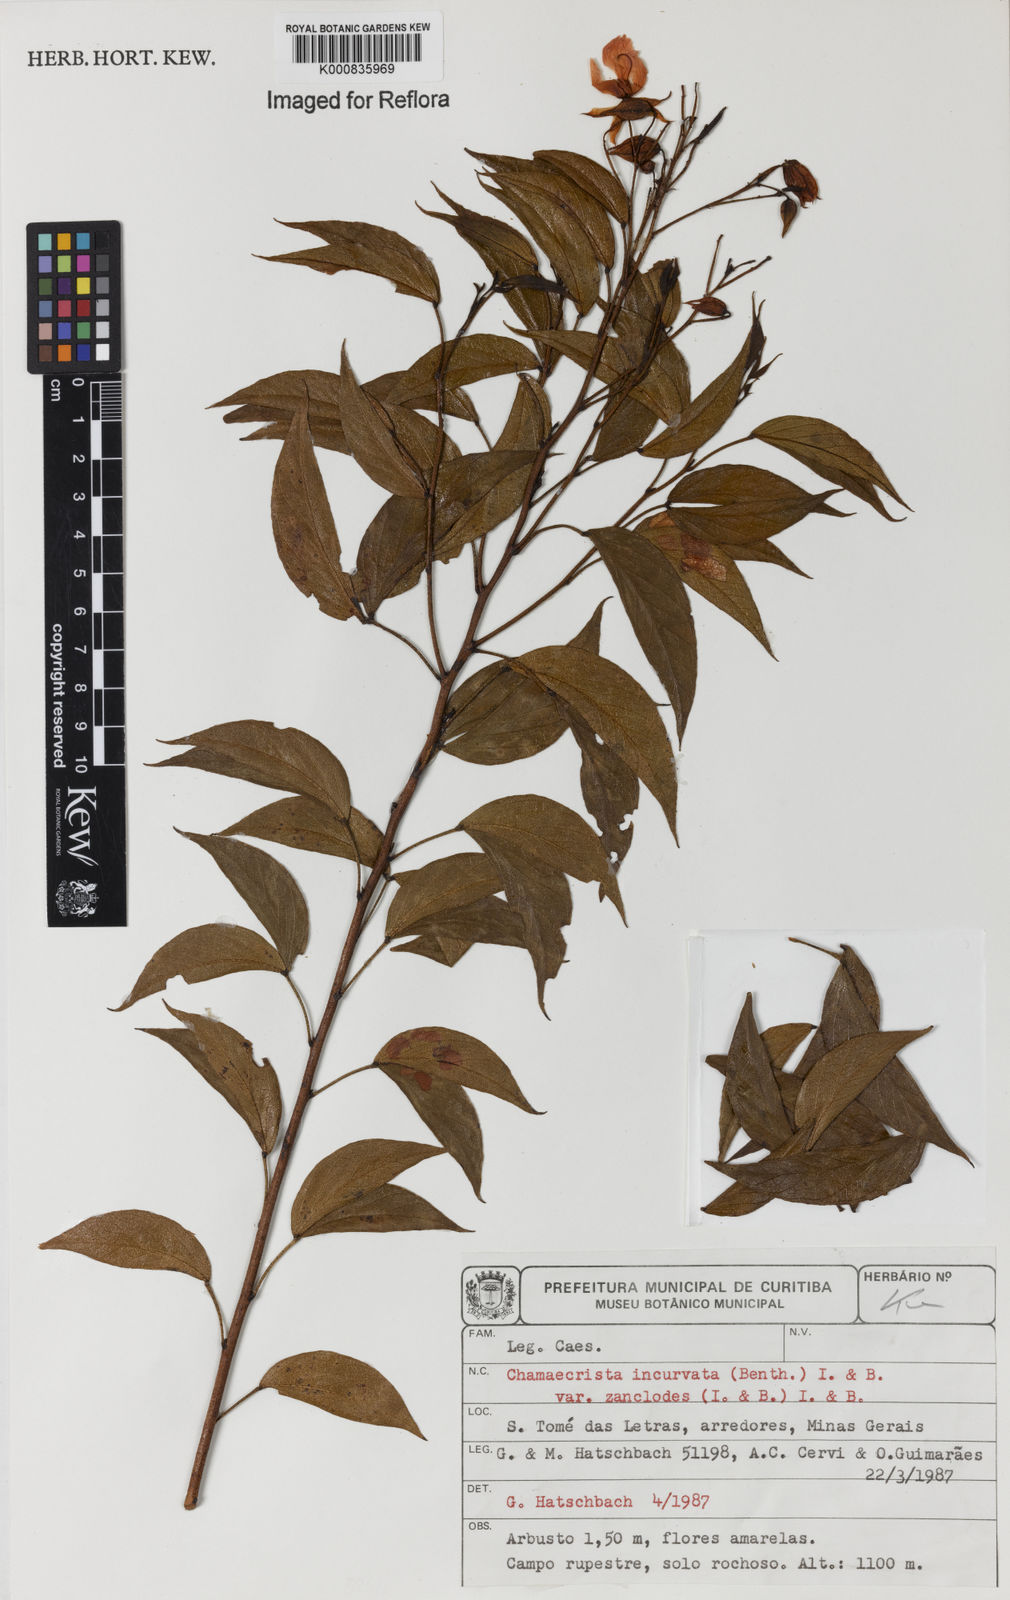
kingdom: Plantae
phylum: Tracheophyta
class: Magnoliopsida
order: Fabales
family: Fabaceae
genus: Chamaecrista
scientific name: Chamaecrista incurvata
